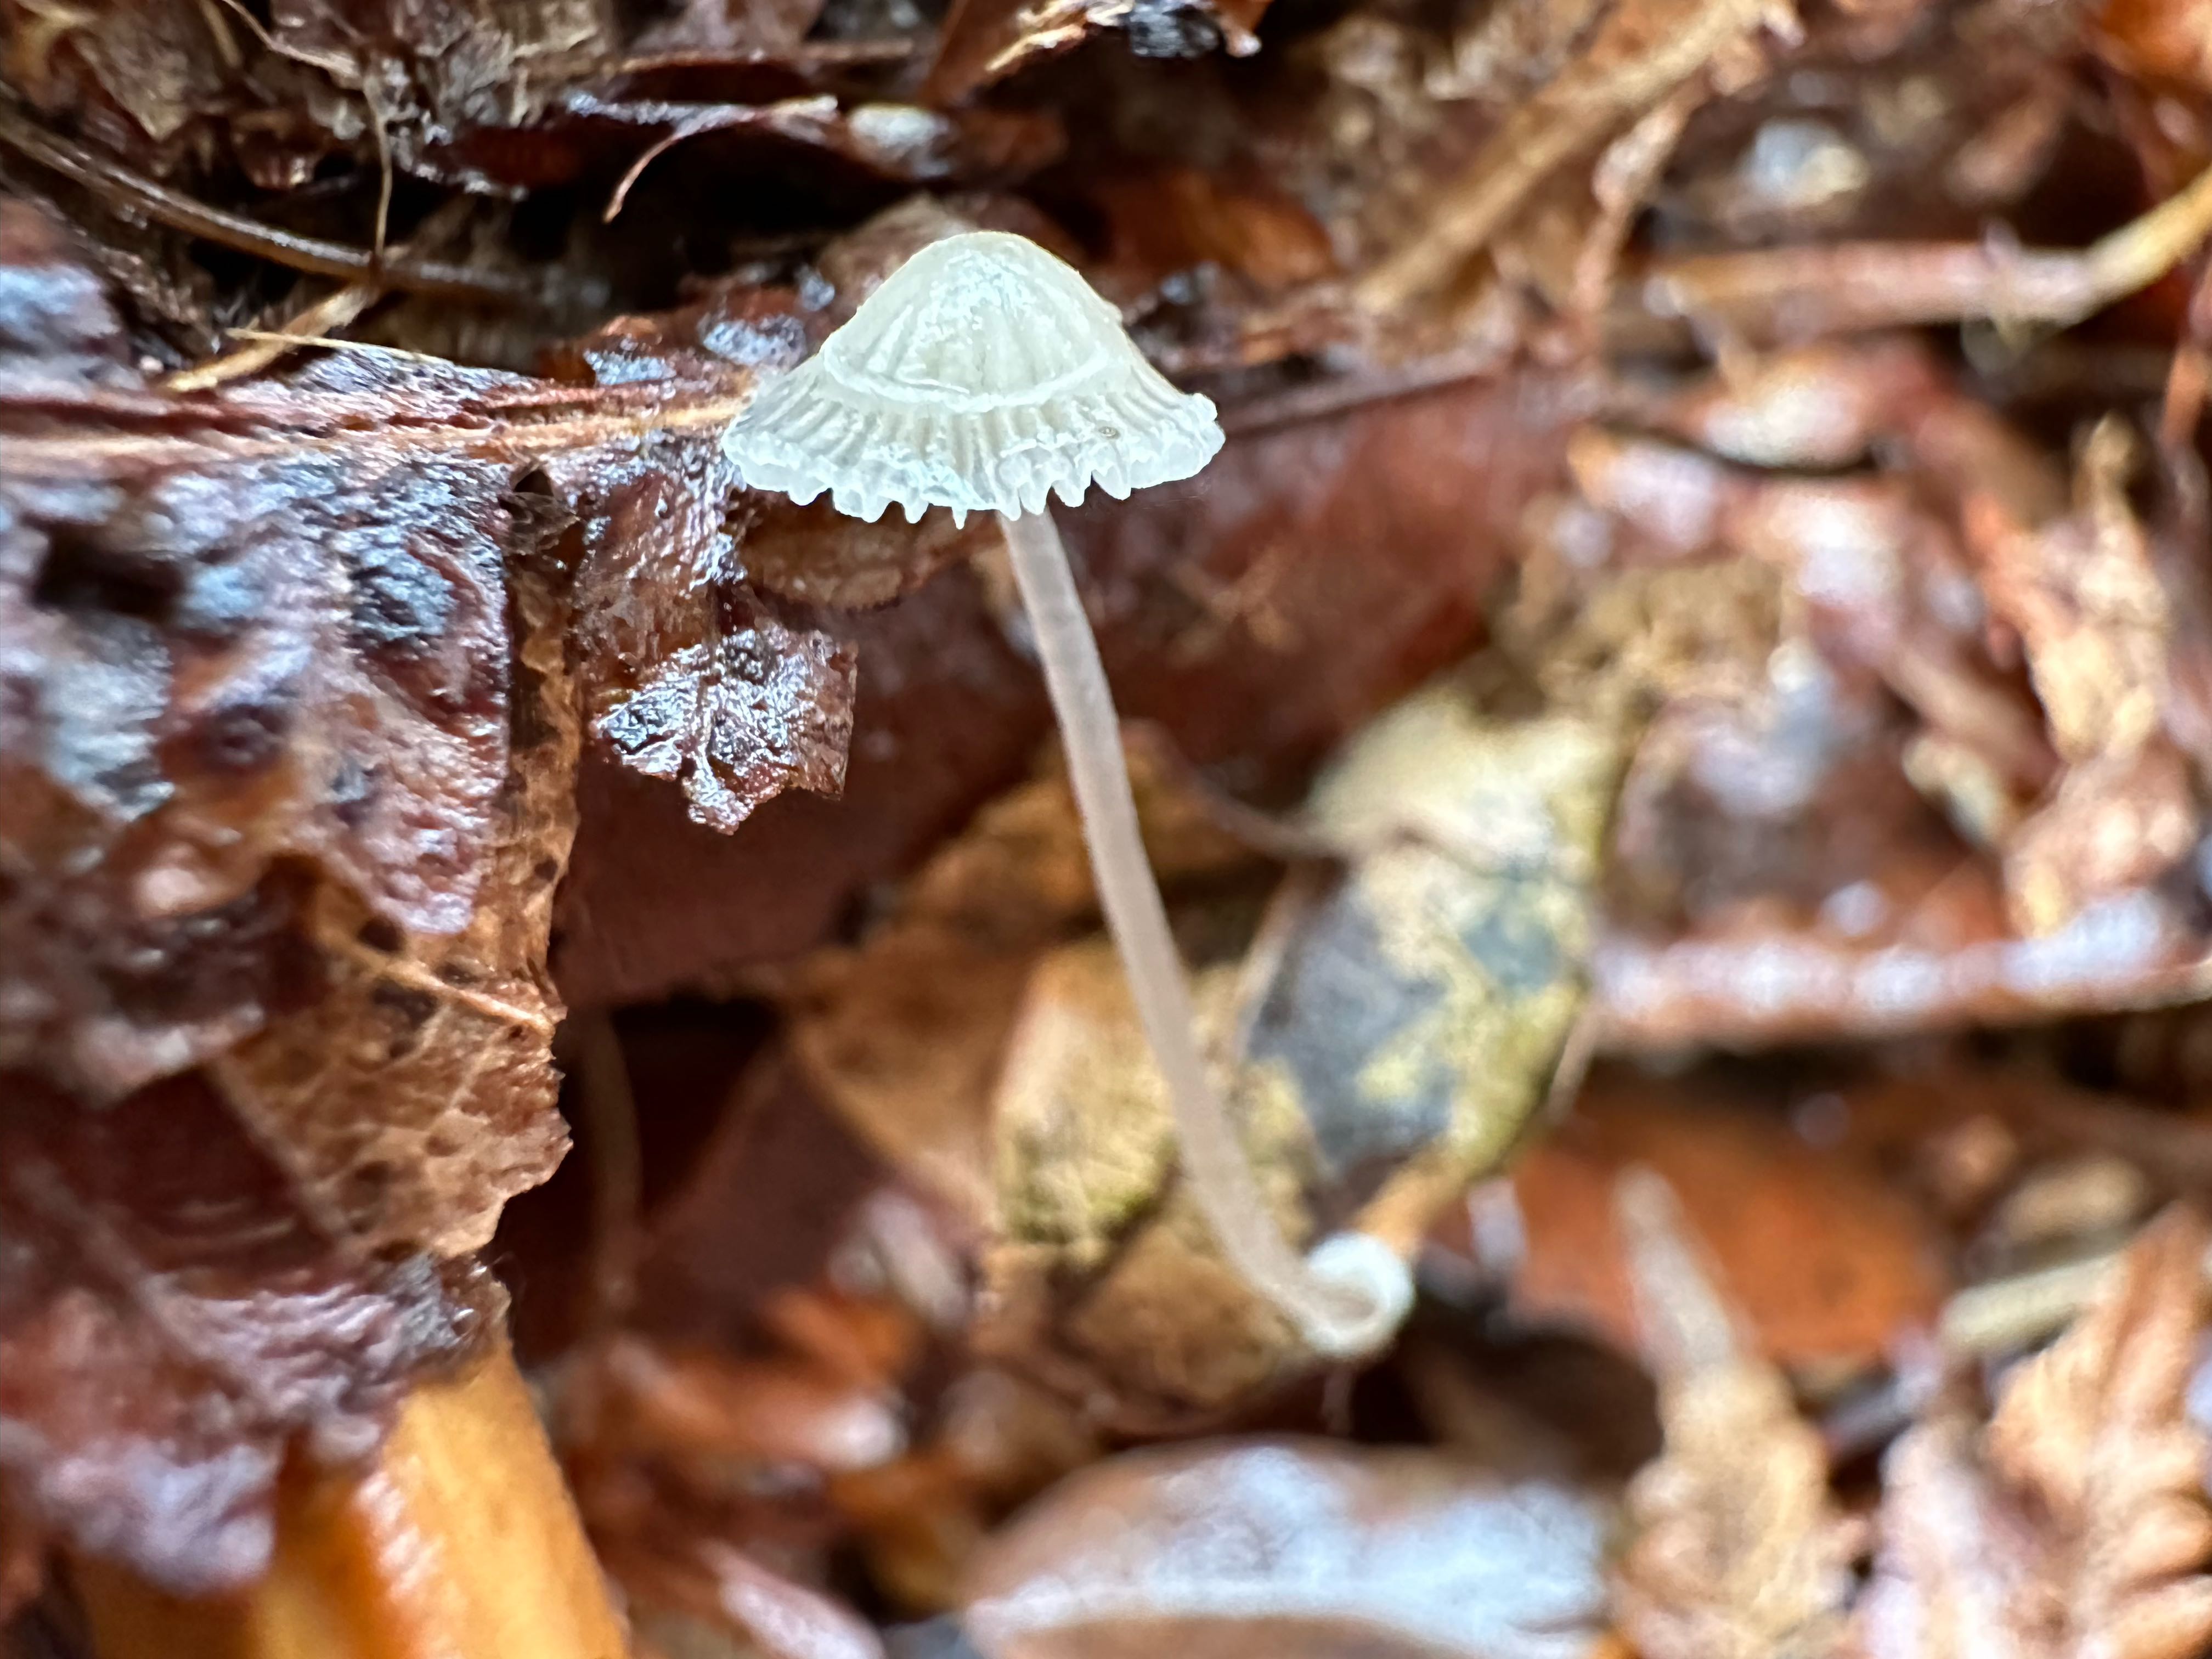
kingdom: Fungi
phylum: Basidiomycota
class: Agaricomycetes
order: Agaricales
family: Mycenaceae
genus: Mycena
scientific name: Mycena stylobates
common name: fureskivet huesvamp
